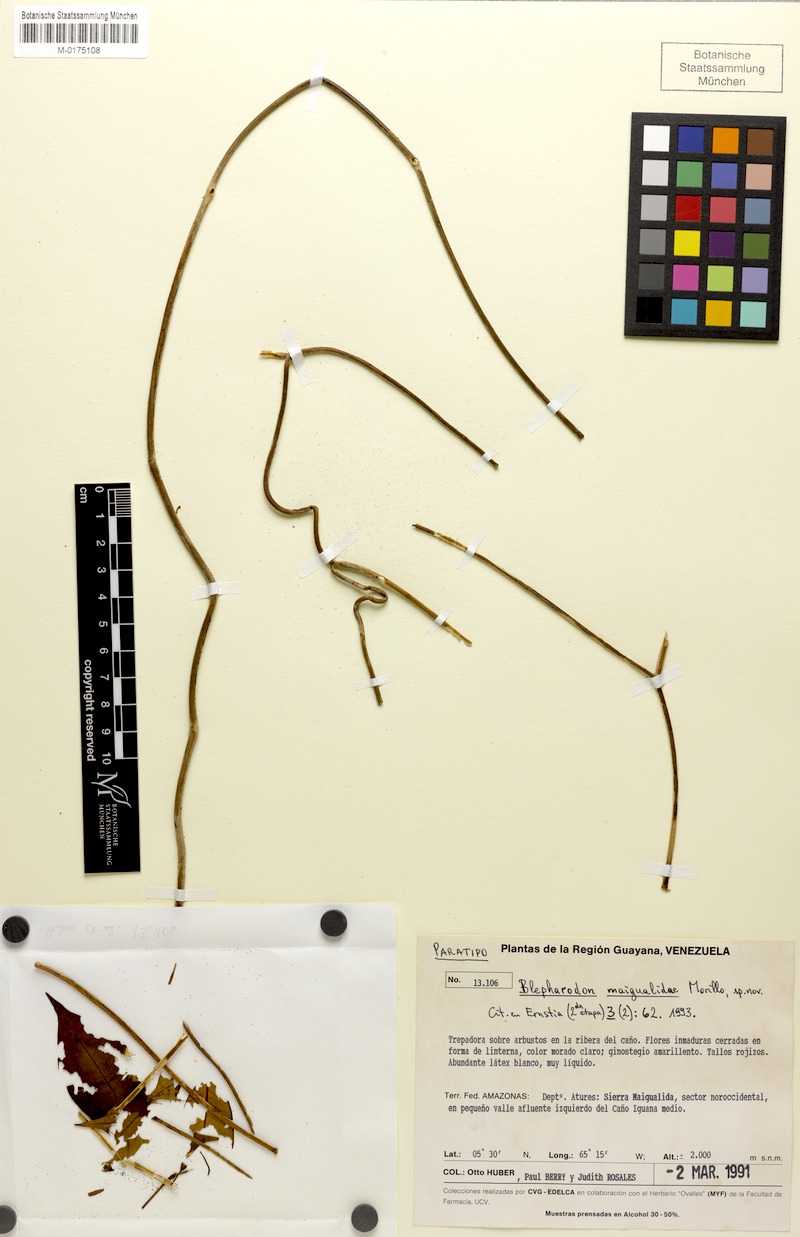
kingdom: Plantae
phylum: Tracheophyta
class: Magnoliopsida
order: Gentianales
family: Apocynaceae
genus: Blepharodon
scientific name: Blepharodon maigualidae
